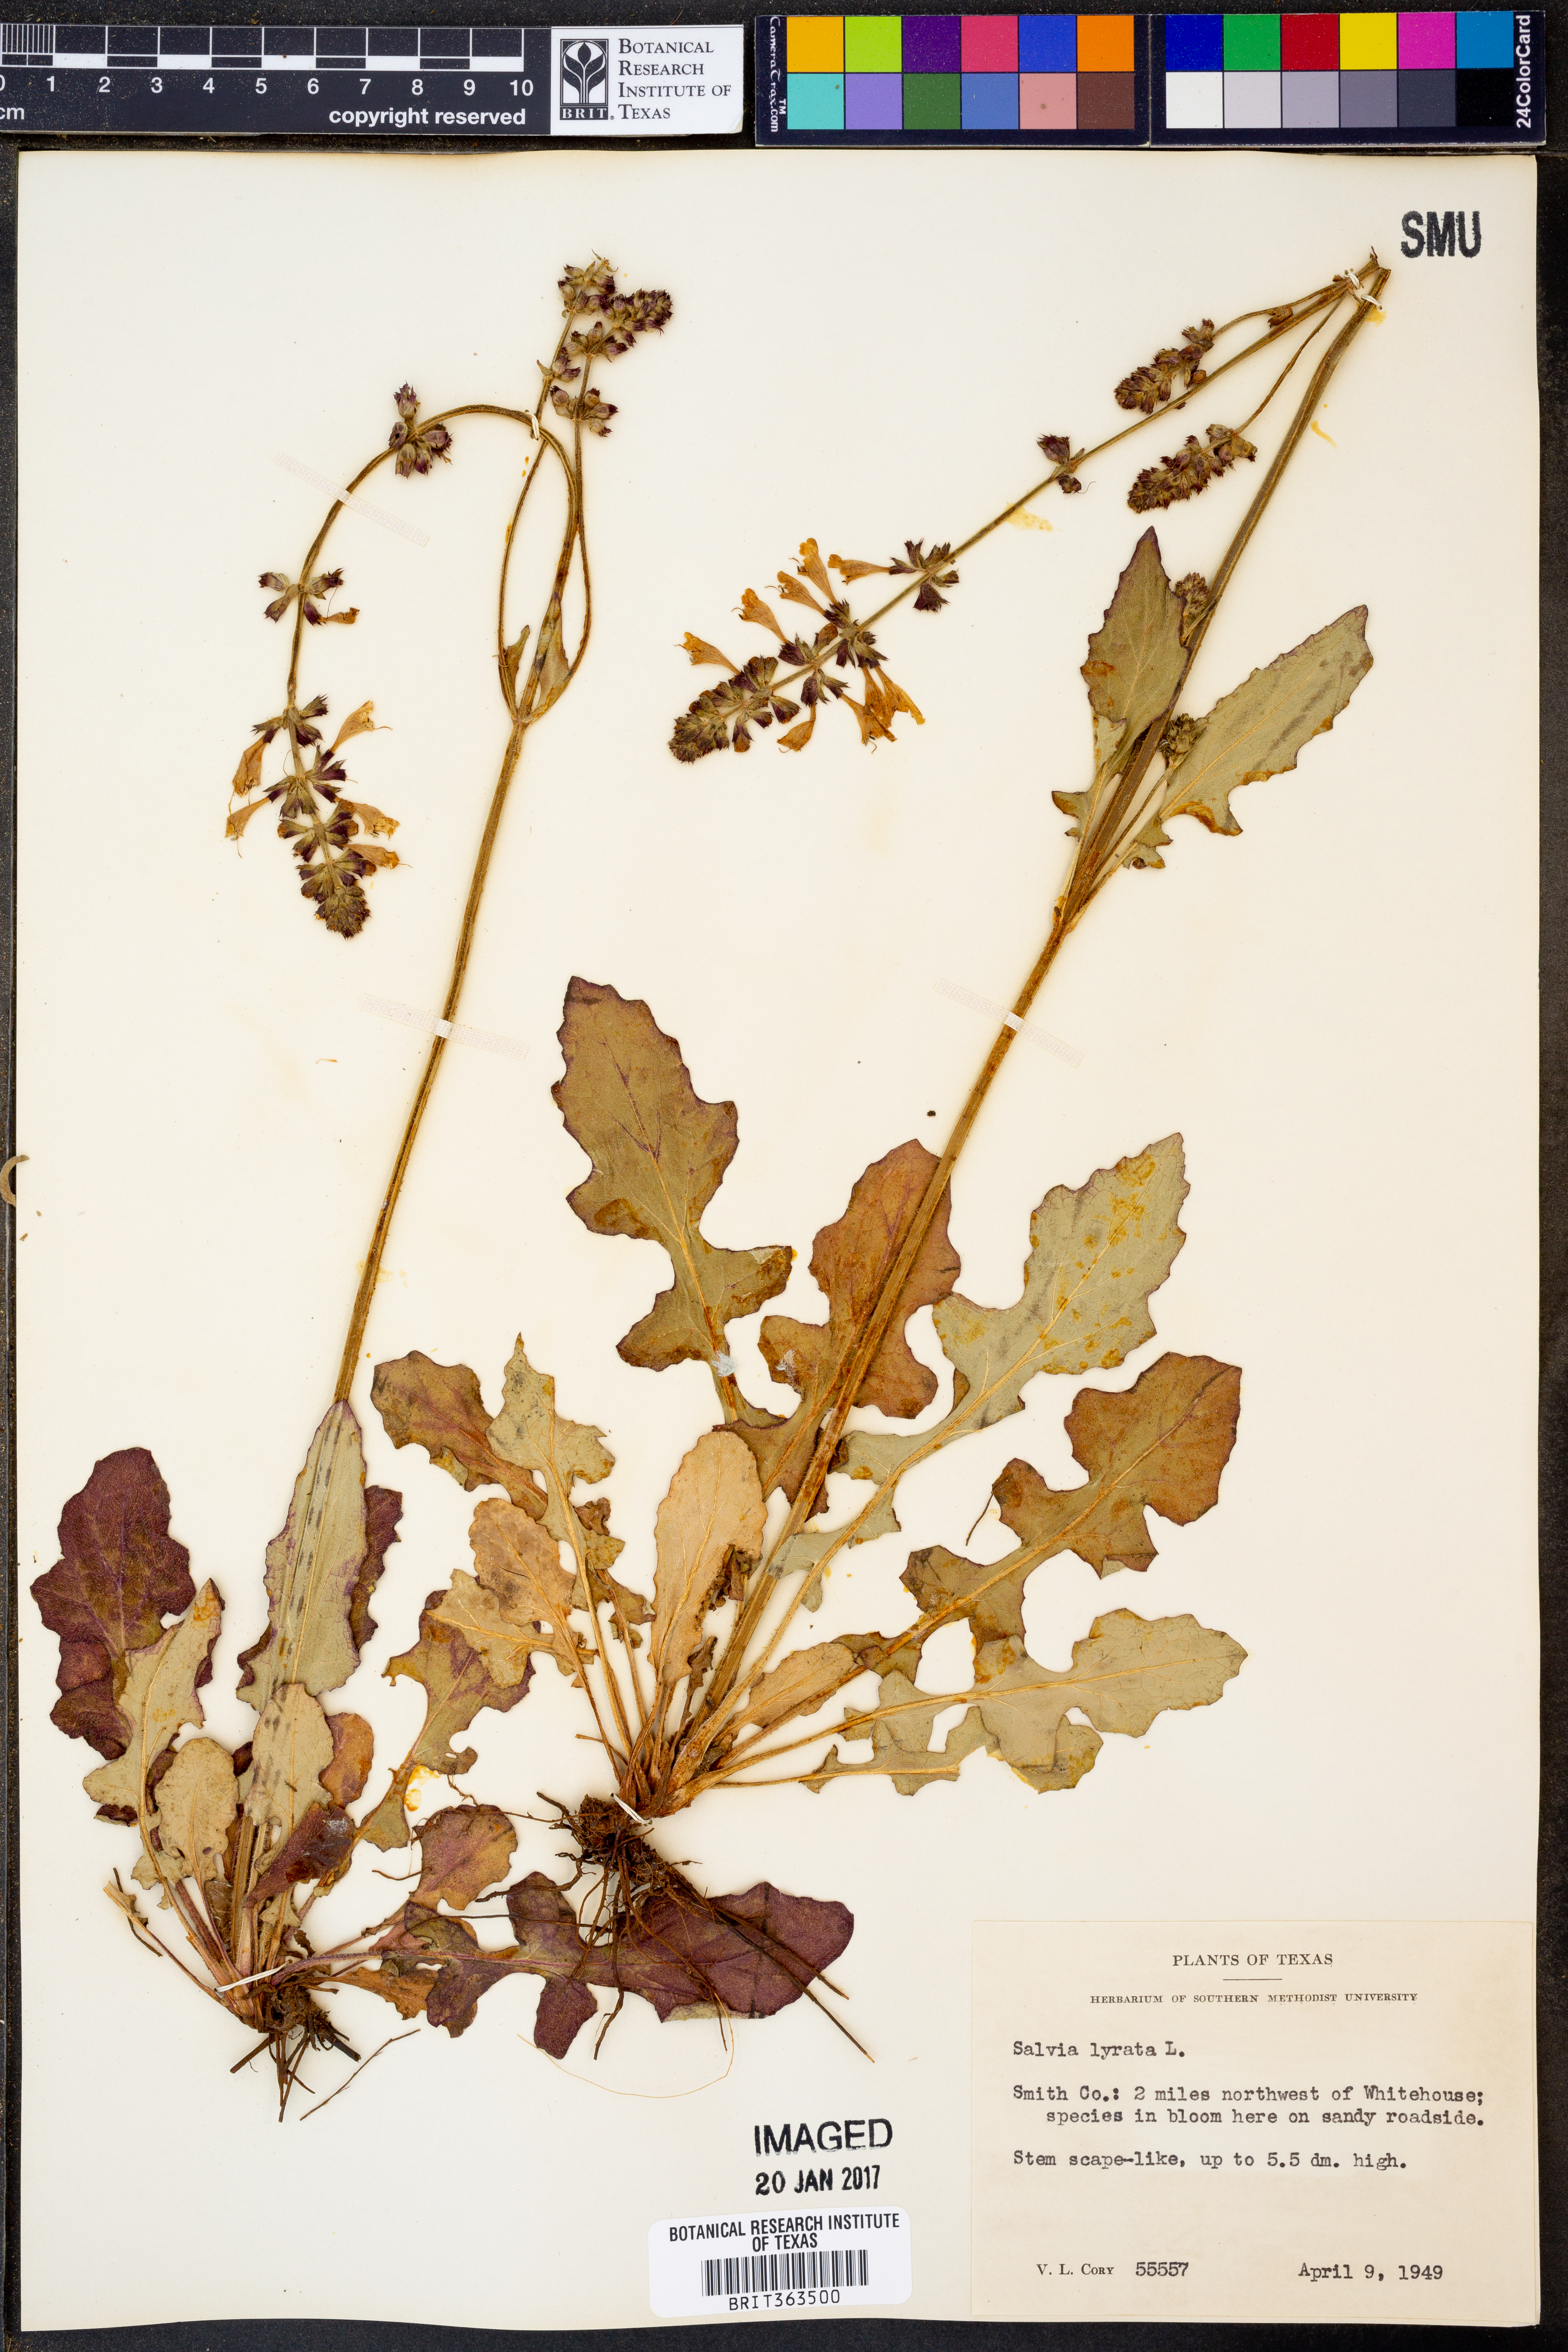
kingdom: Plantae
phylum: Tracheophyta
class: Magnoliopsida
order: Lamiales
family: Lamiaceae
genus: Salvia
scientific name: Salvia lyrata
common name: Cancerweed
